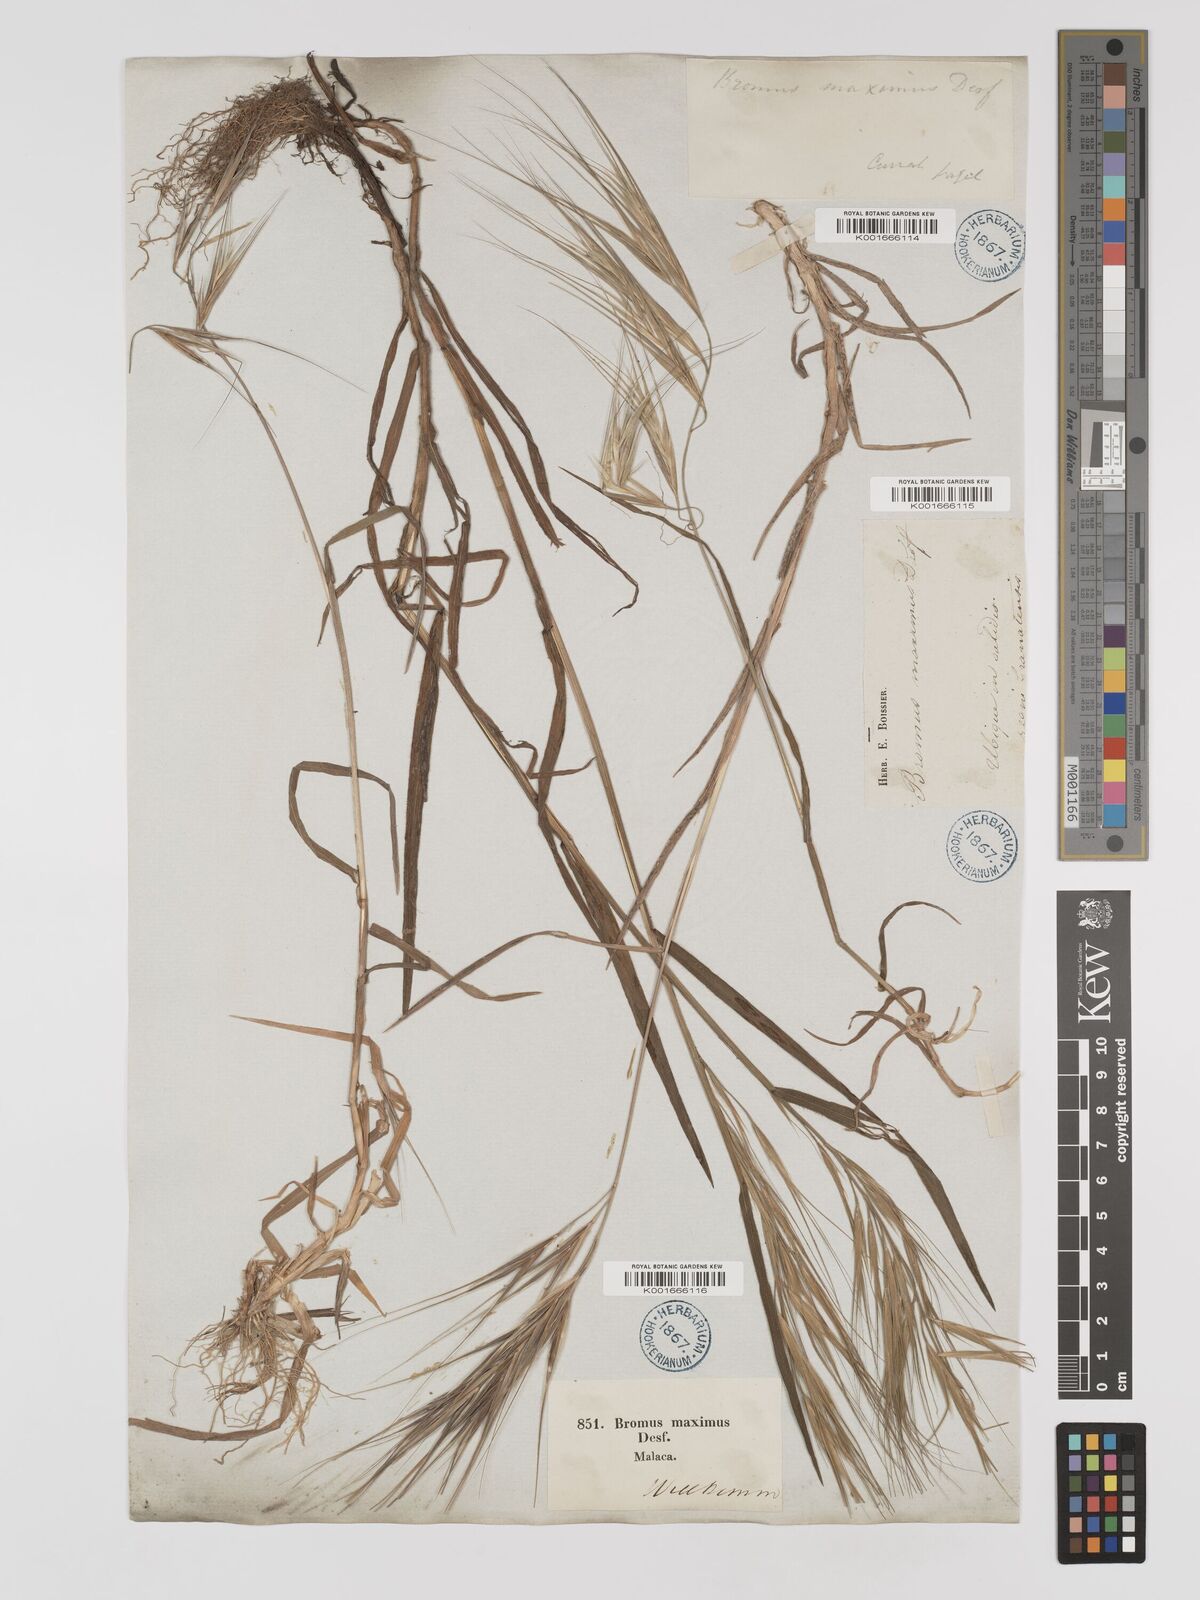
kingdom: Plantae
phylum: Tracheophyta
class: Liliopsida
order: Poales
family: Poaceae
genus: Bromus
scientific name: Bromus
